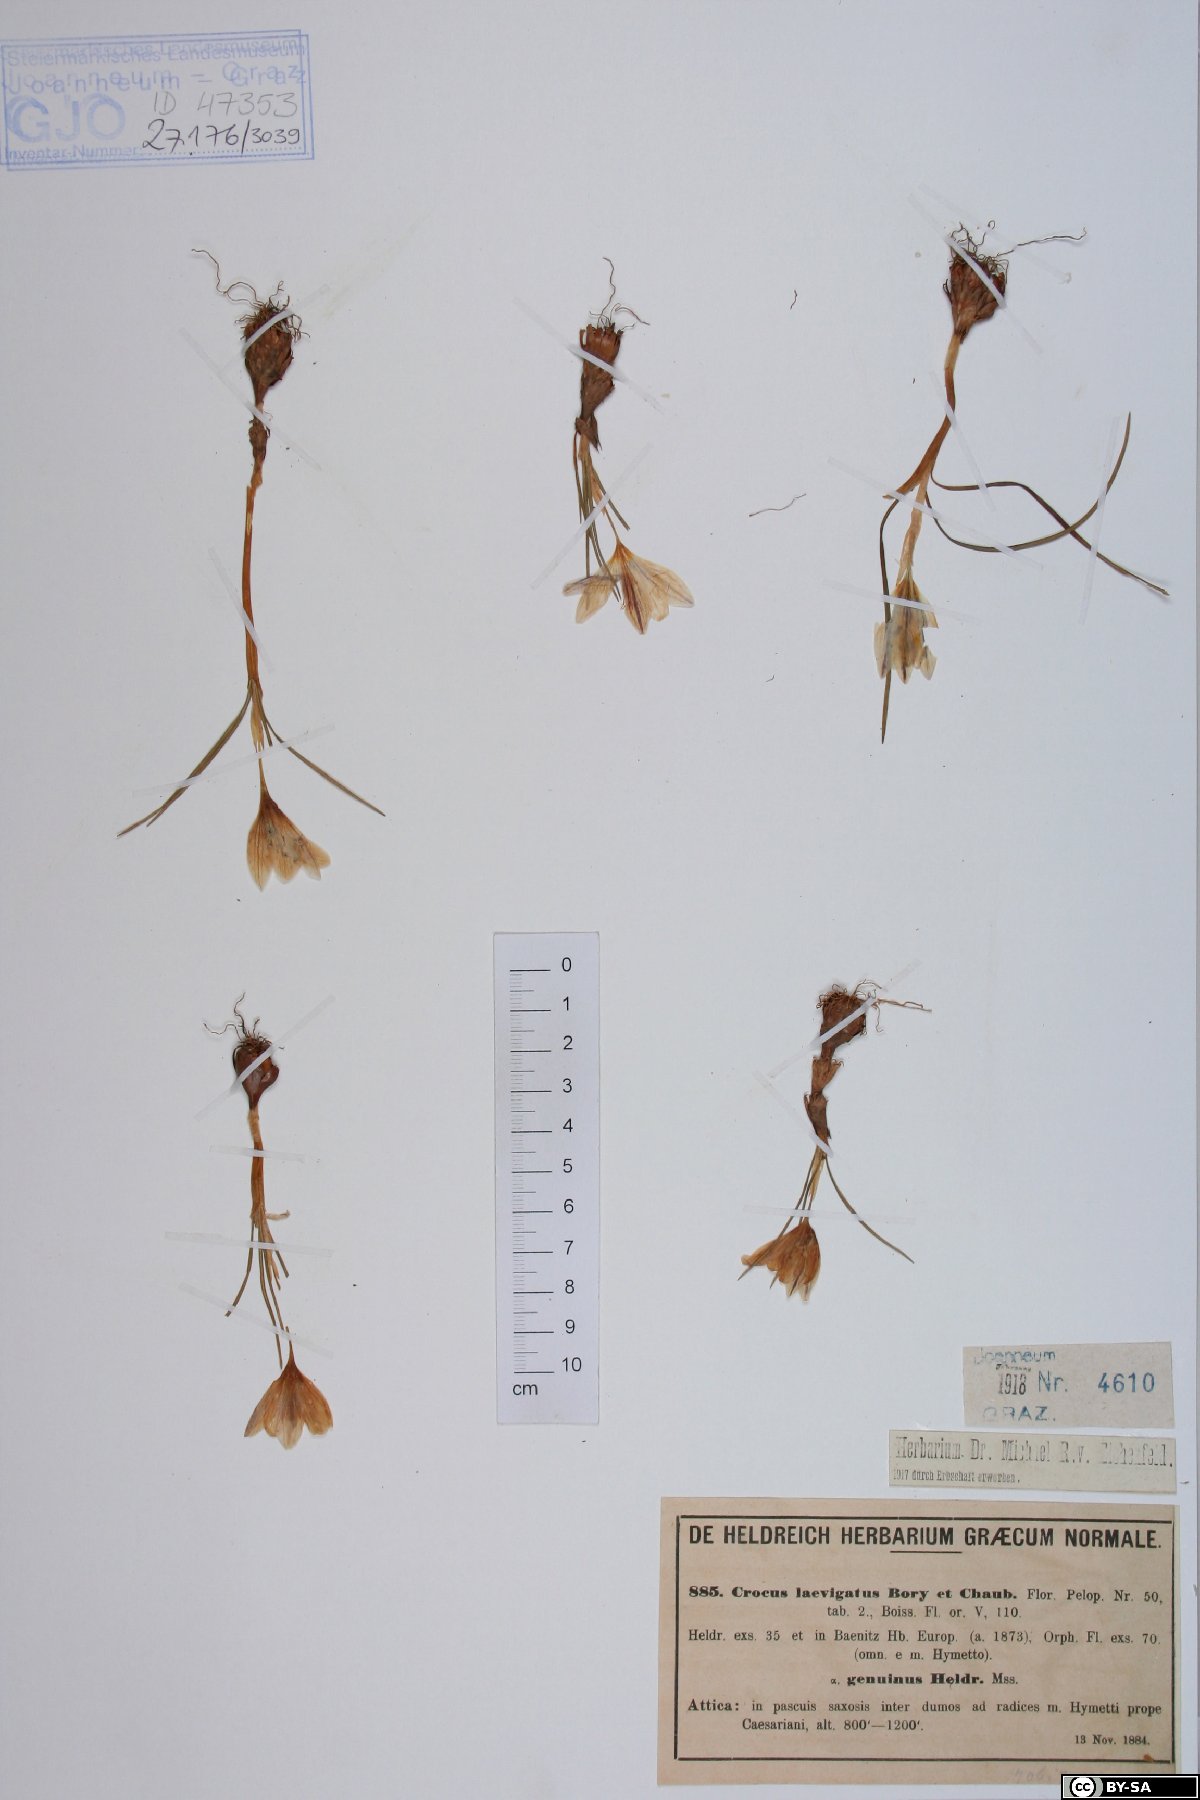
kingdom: Plantae
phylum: Tracheophyta
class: Liliopsida
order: Asparagales
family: Iridaceae
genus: Crocus
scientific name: Crocus laevigatus
